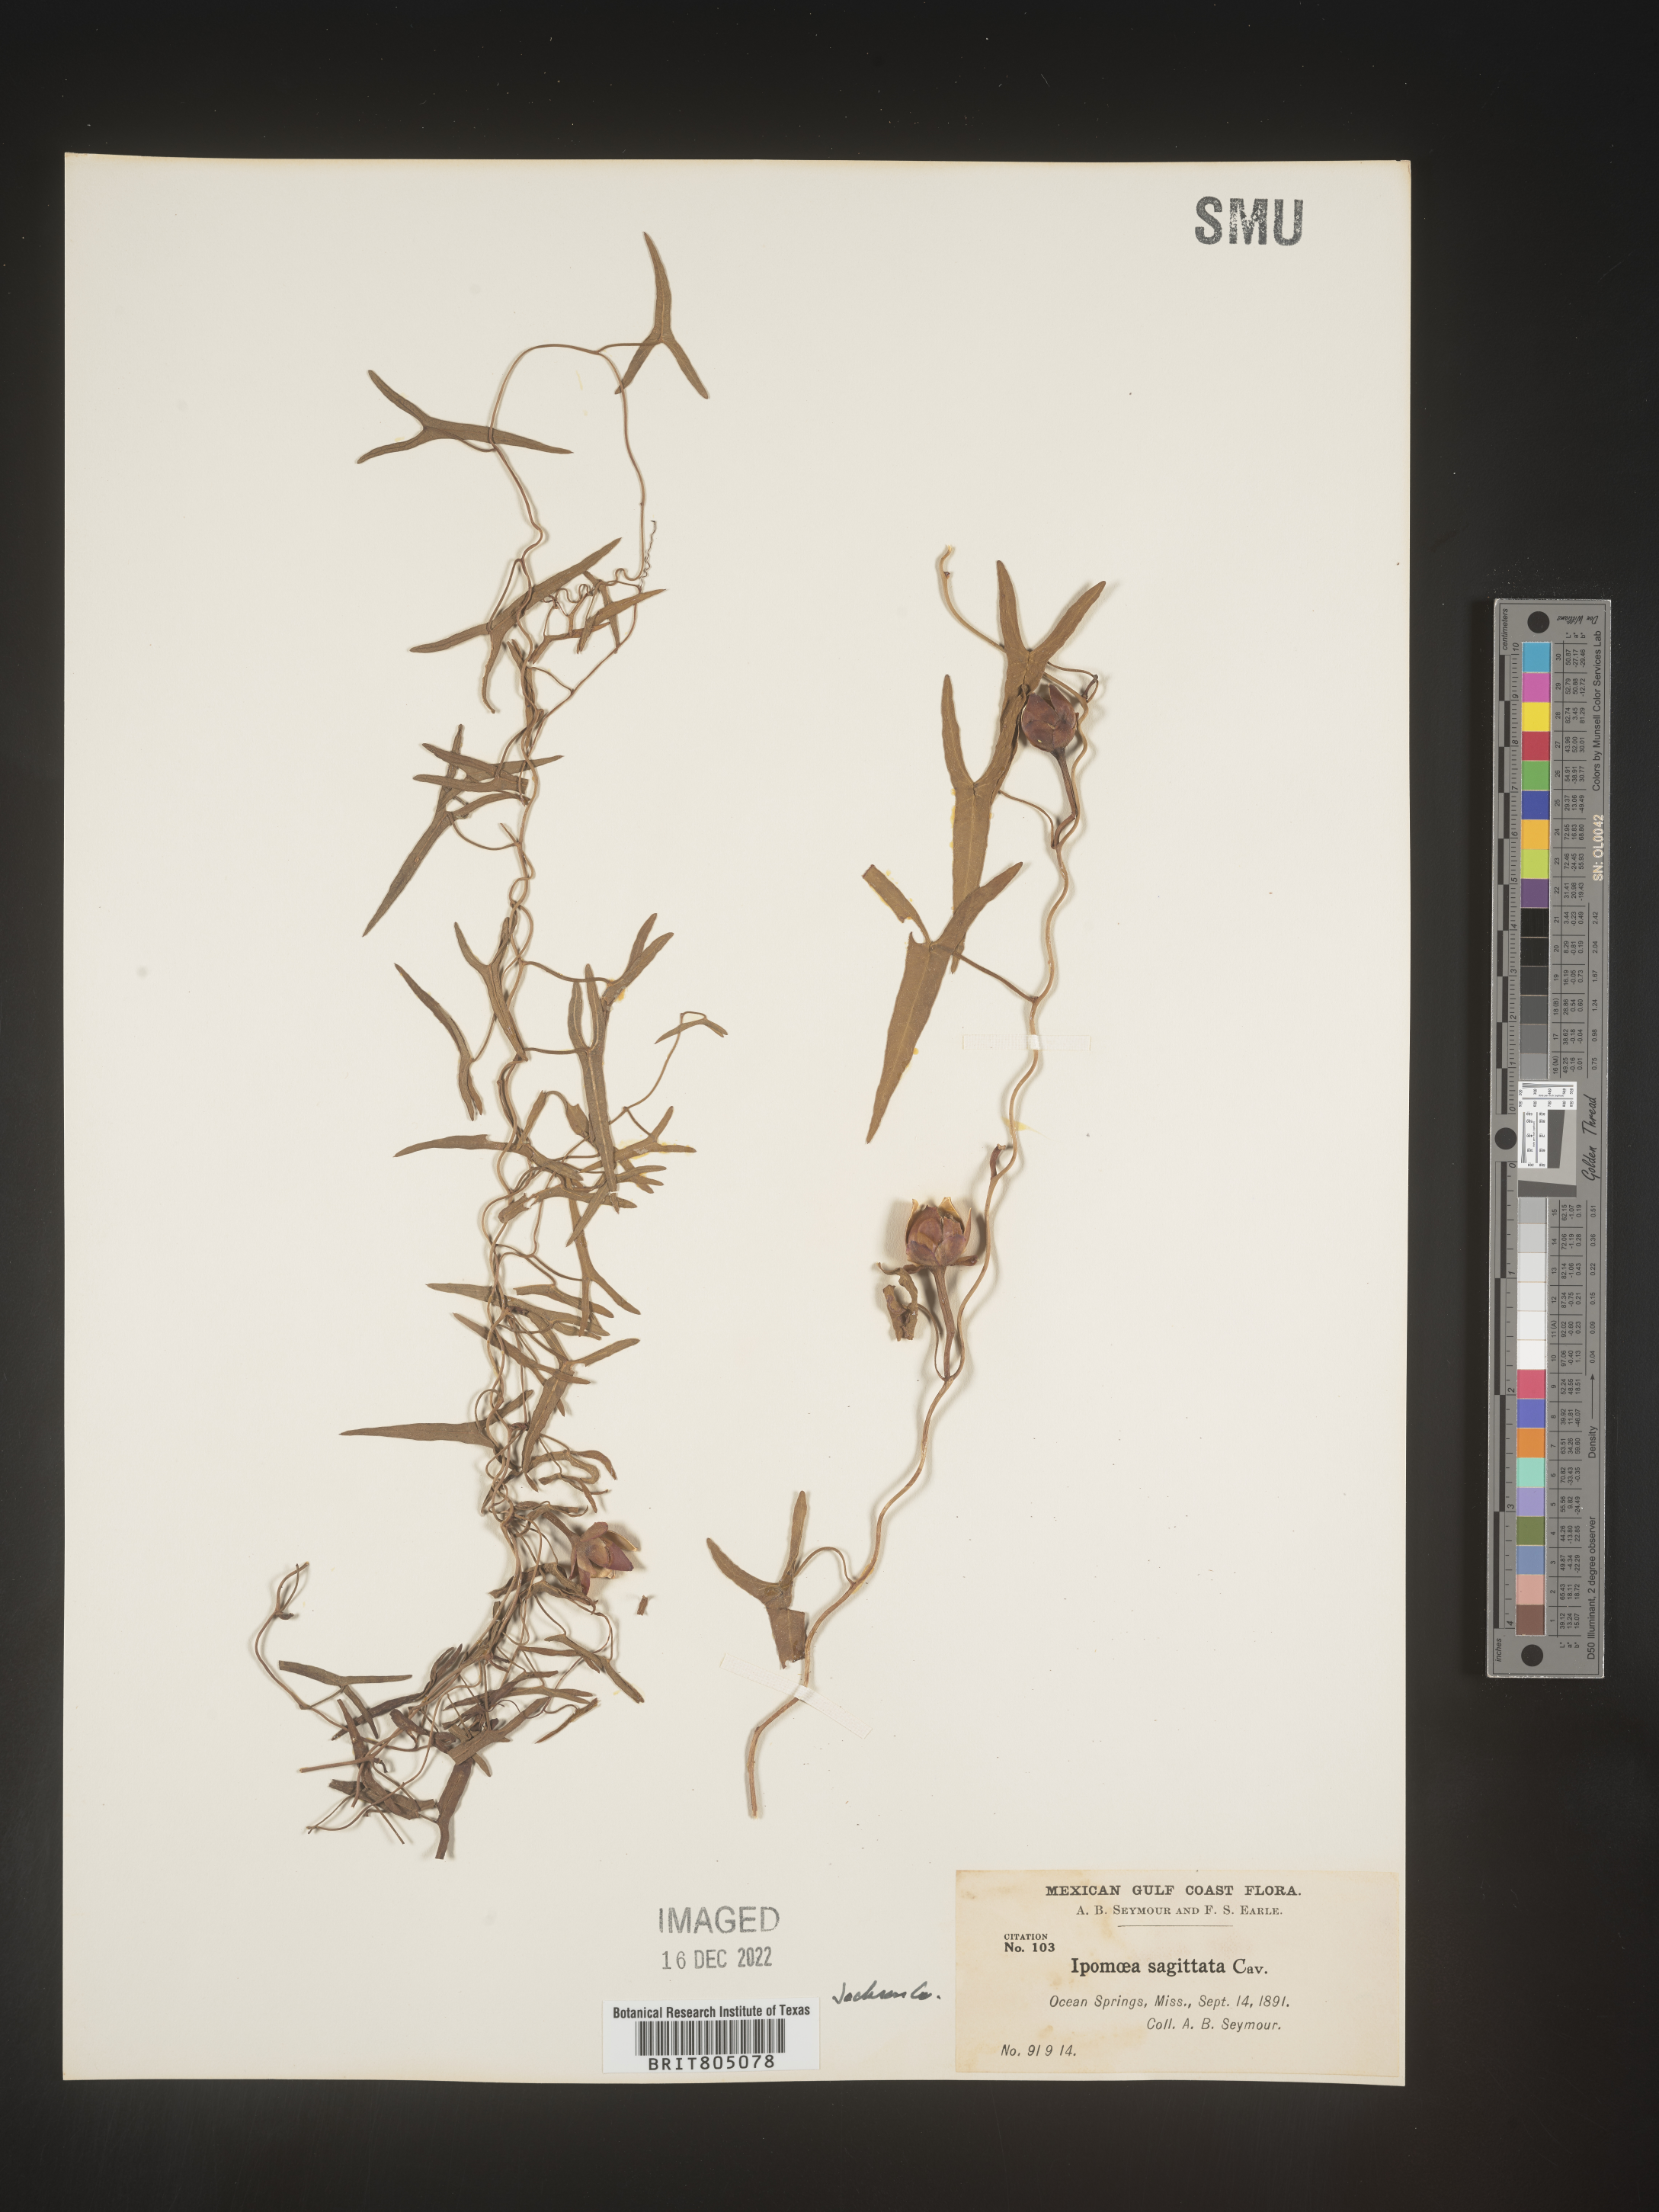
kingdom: Plantae
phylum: Tracheophyta
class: Magnoliopsida
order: Solanales
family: Convolvulaceae
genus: Ipomoea
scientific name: Ipomoea sinensis
